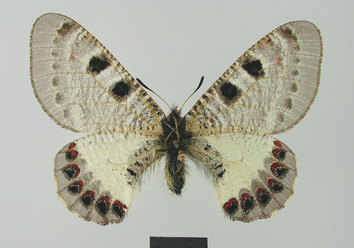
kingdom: Animalia
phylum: Arthropoda
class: Insecta
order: Lepidoptera
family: Papilionidae
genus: Archon
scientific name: Archon apollinus
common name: False apollo
